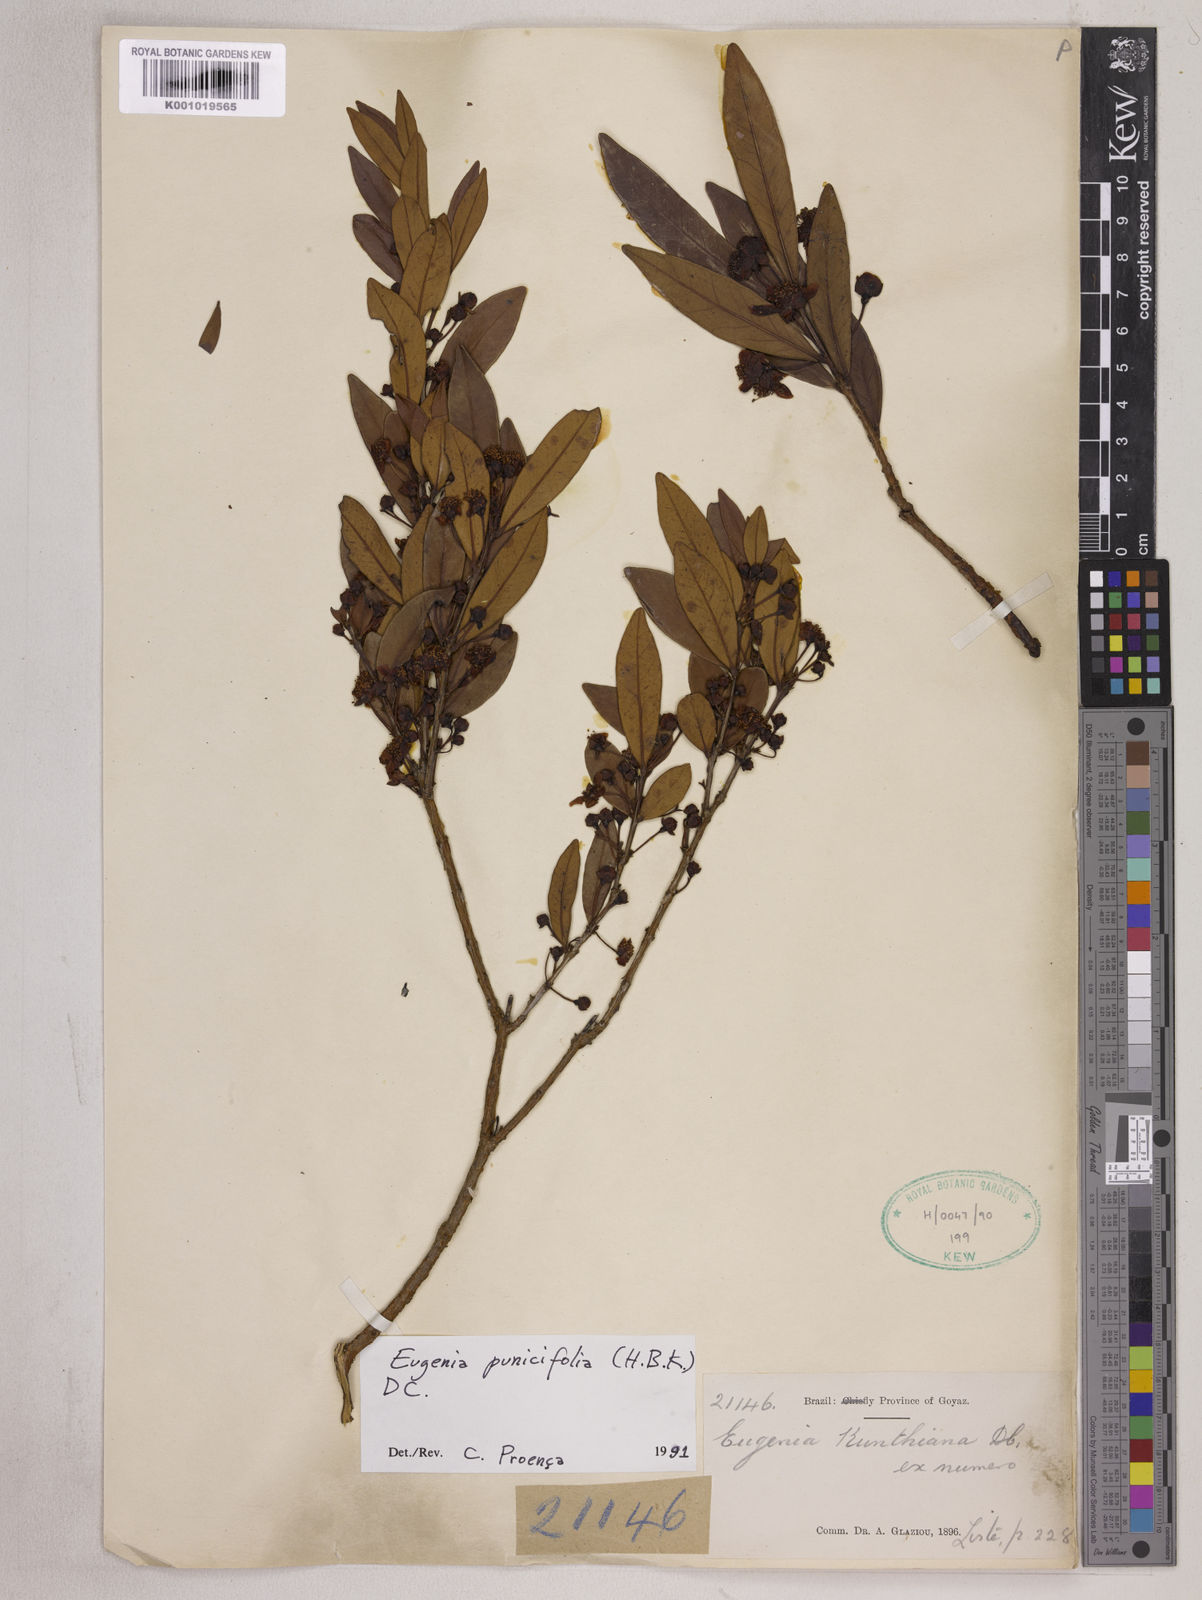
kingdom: Plantae
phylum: Tracheophyta
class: Magnoliopsida
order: Myrtales
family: Myrtaceae
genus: Eugenia
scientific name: Eugenia punicifolia
